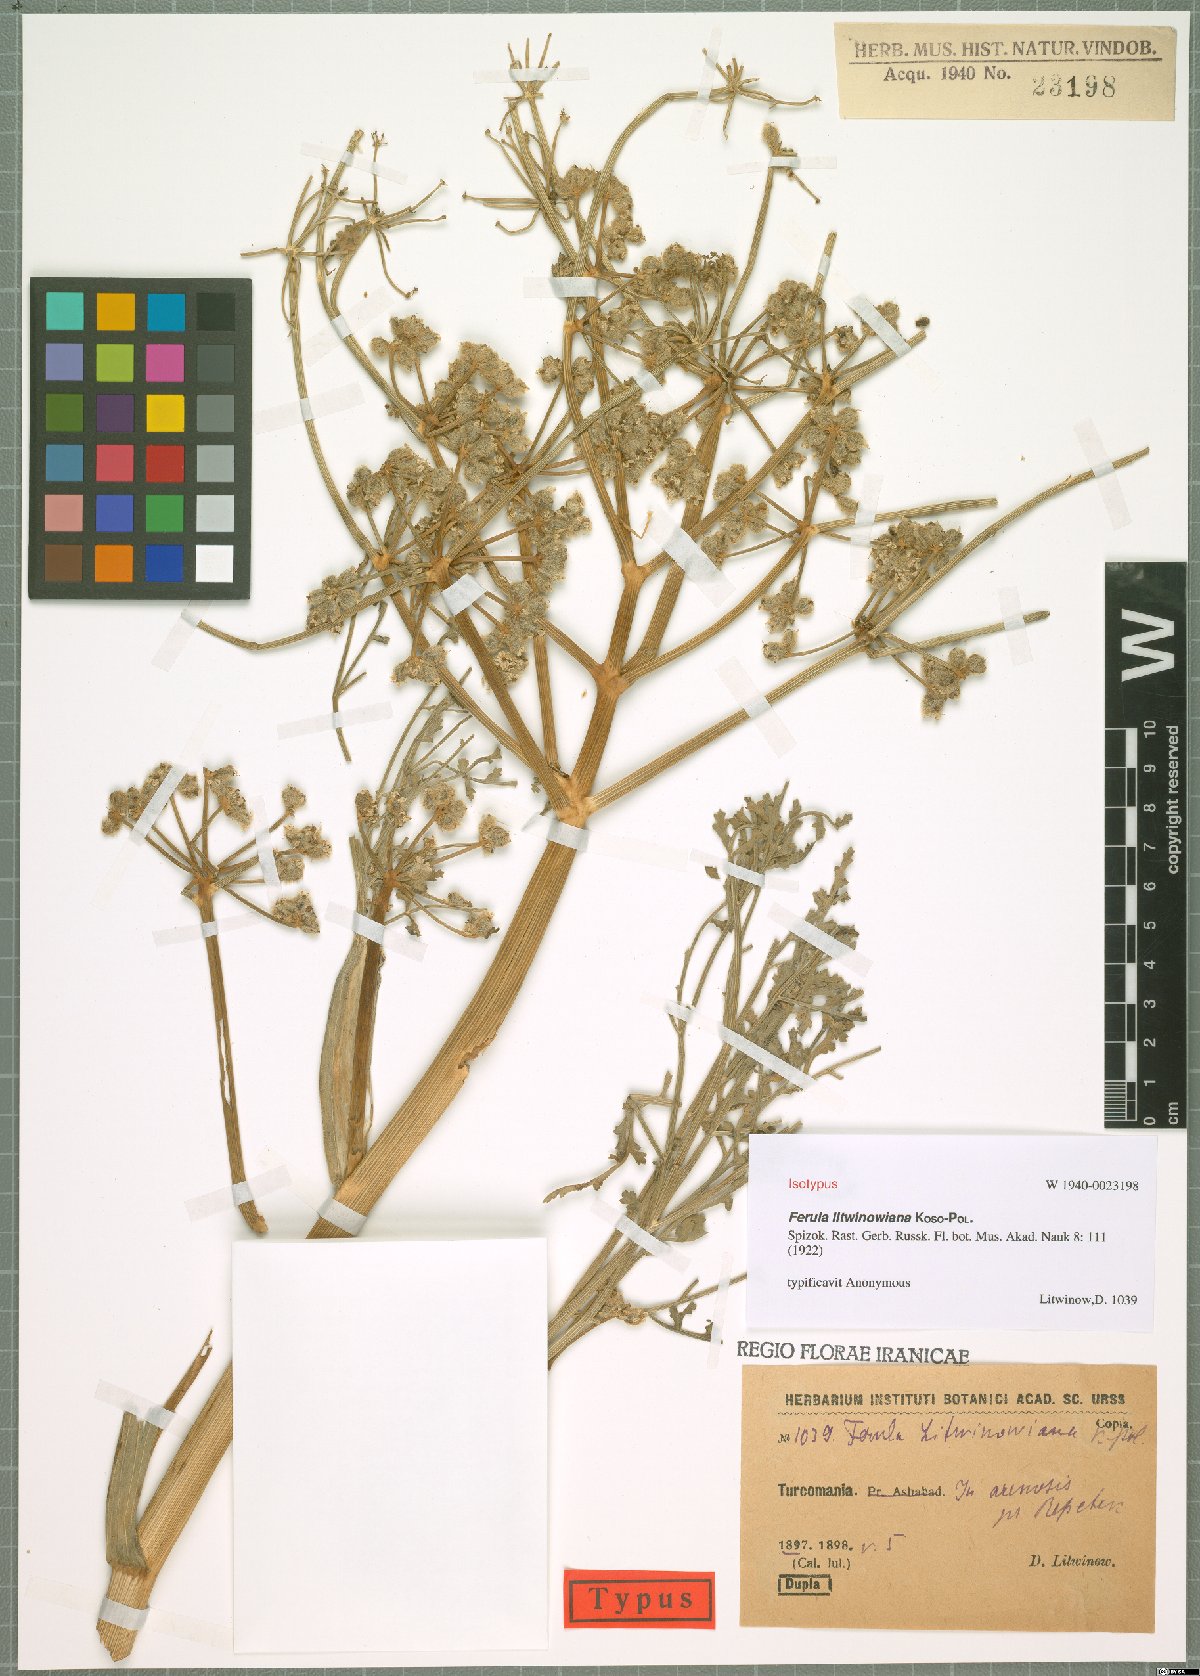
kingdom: Plantae
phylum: Tracheophyta
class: Magnoliopsida
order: Apiales
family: Apiaceae
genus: Ferula
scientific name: Ferula litwinowiana
